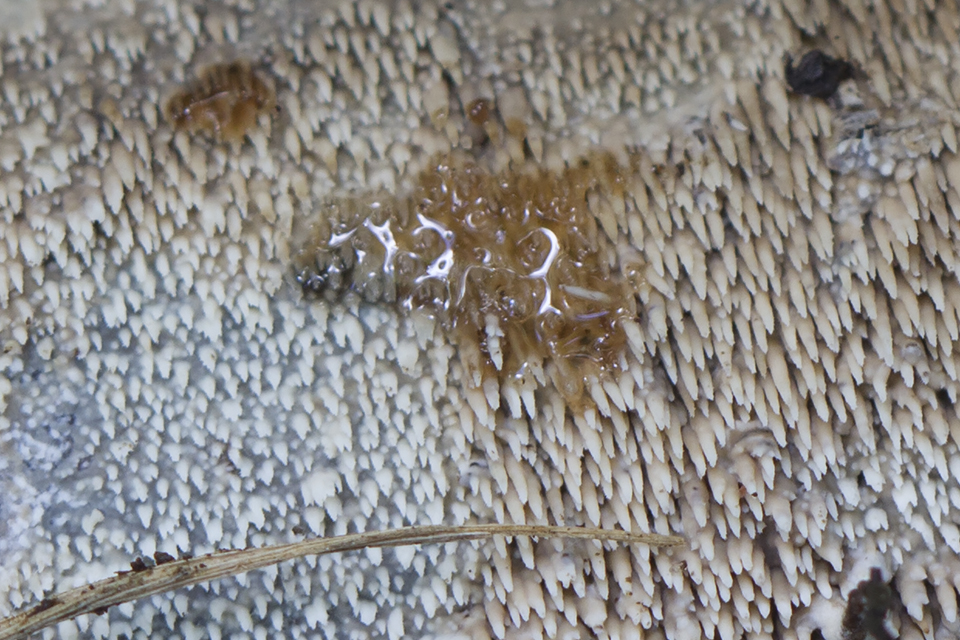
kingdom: Fungi
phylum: Basidiomycota
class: Agaricomycetes
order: Polyporales
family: Meruliaceae
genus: Mycoacia
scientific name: Mycoacia fuscoatra
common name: mørk vokspig
